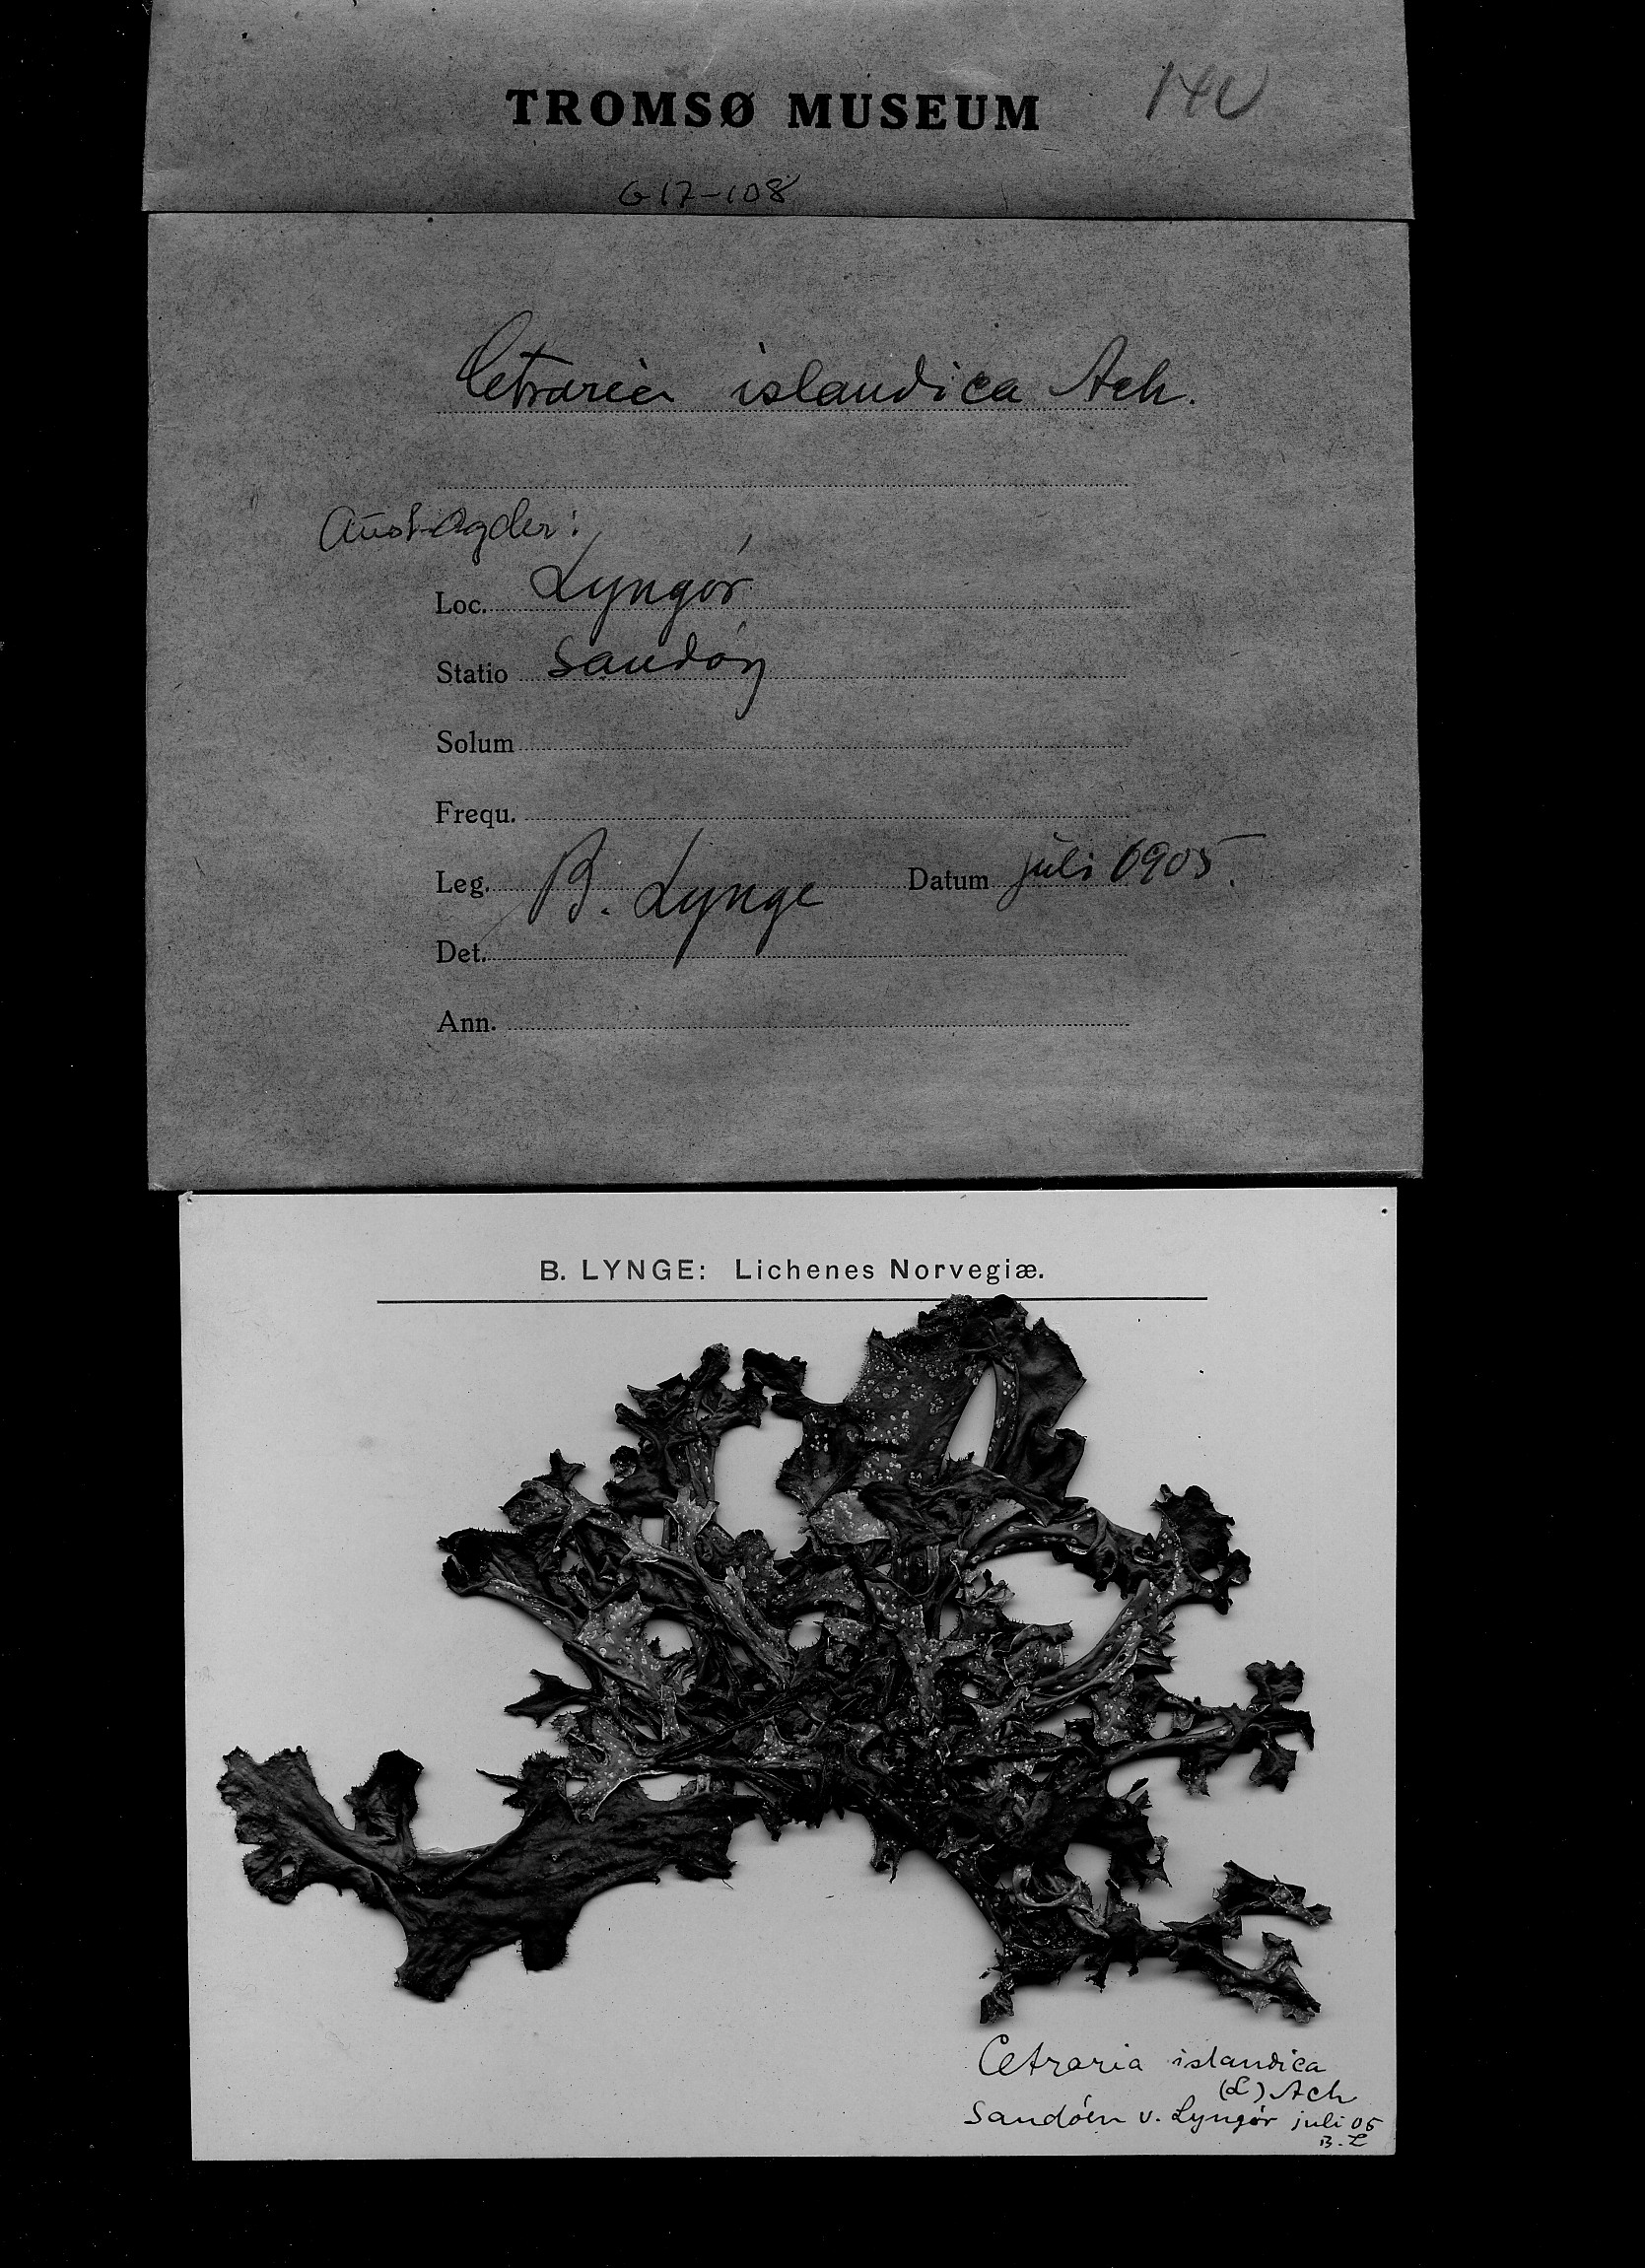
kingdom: Fungi
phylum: Ascomycota
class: Lecanoromycetes
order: Lecanorales
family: Parmeliaceae
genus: Cetraria
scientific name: Cetraria islandica
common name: Iceland lichen
